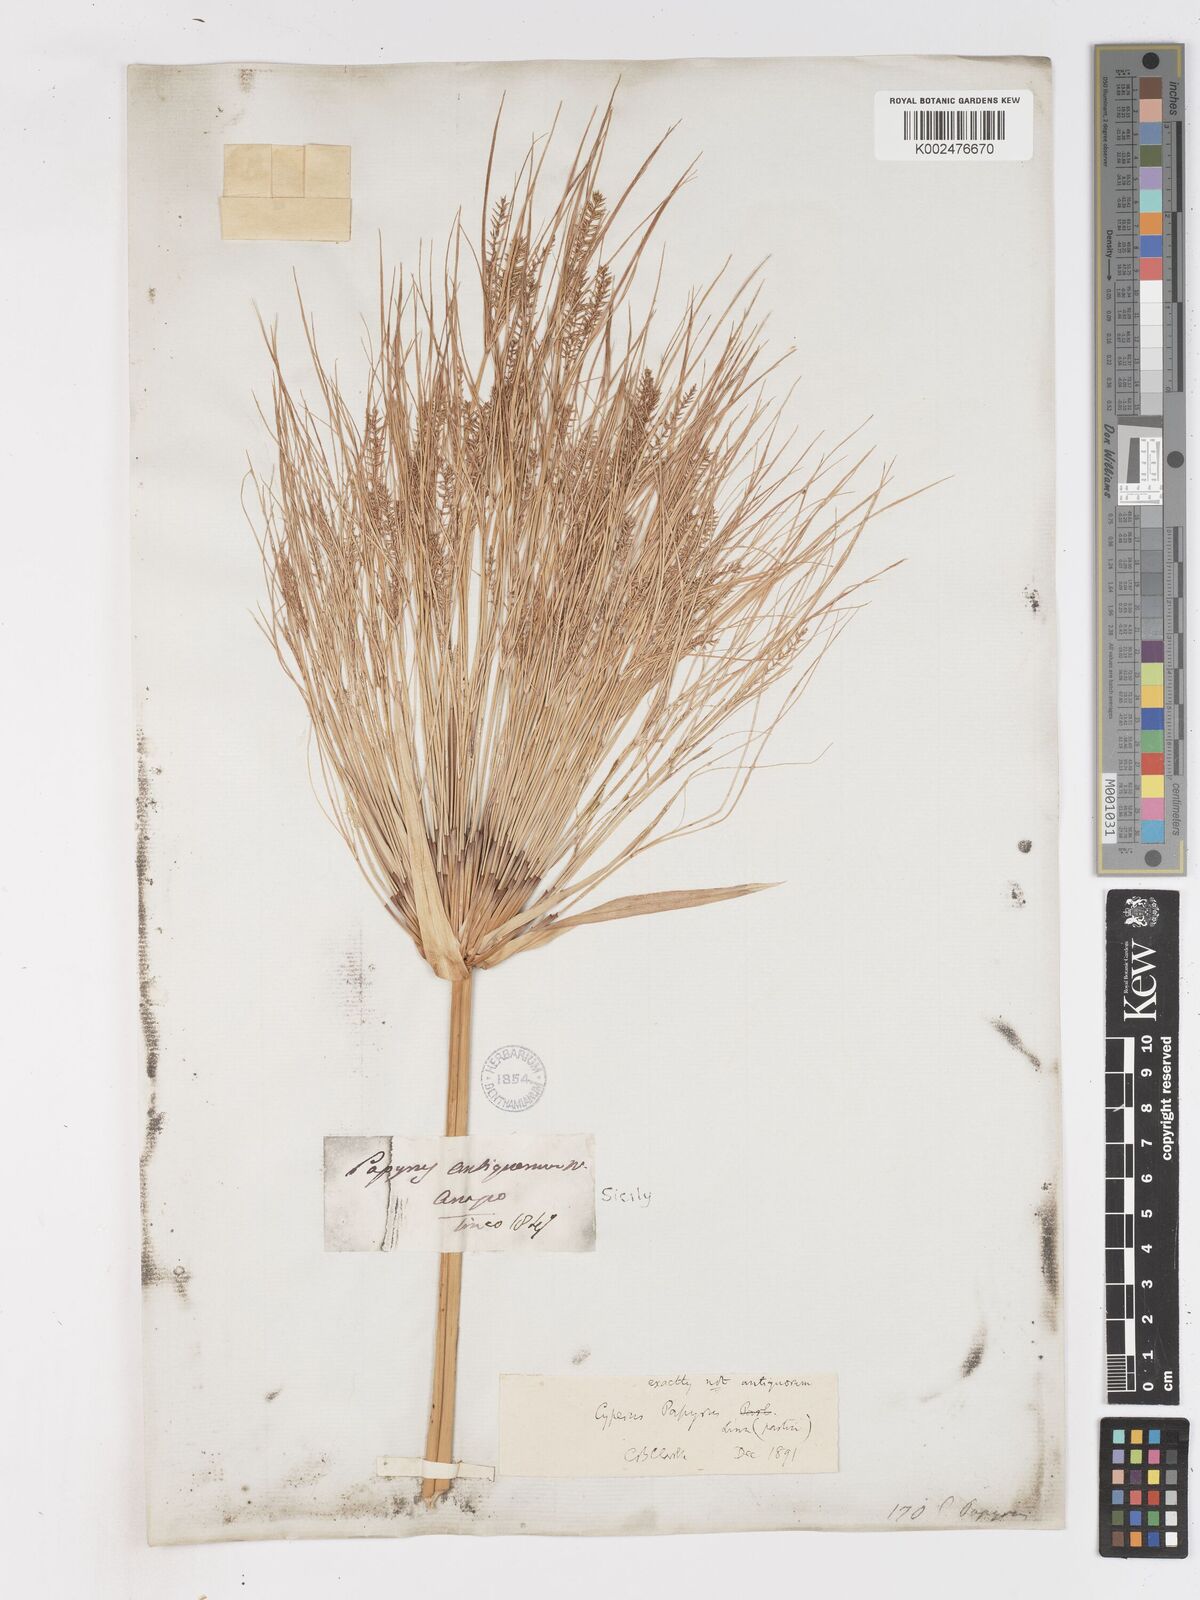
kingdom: Plantae
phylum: Tracheophyta
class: Liliopsida
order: Poales
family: Cyperaceae
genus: Cyperus
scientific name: Cyperus papyrus
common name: Papyrus
